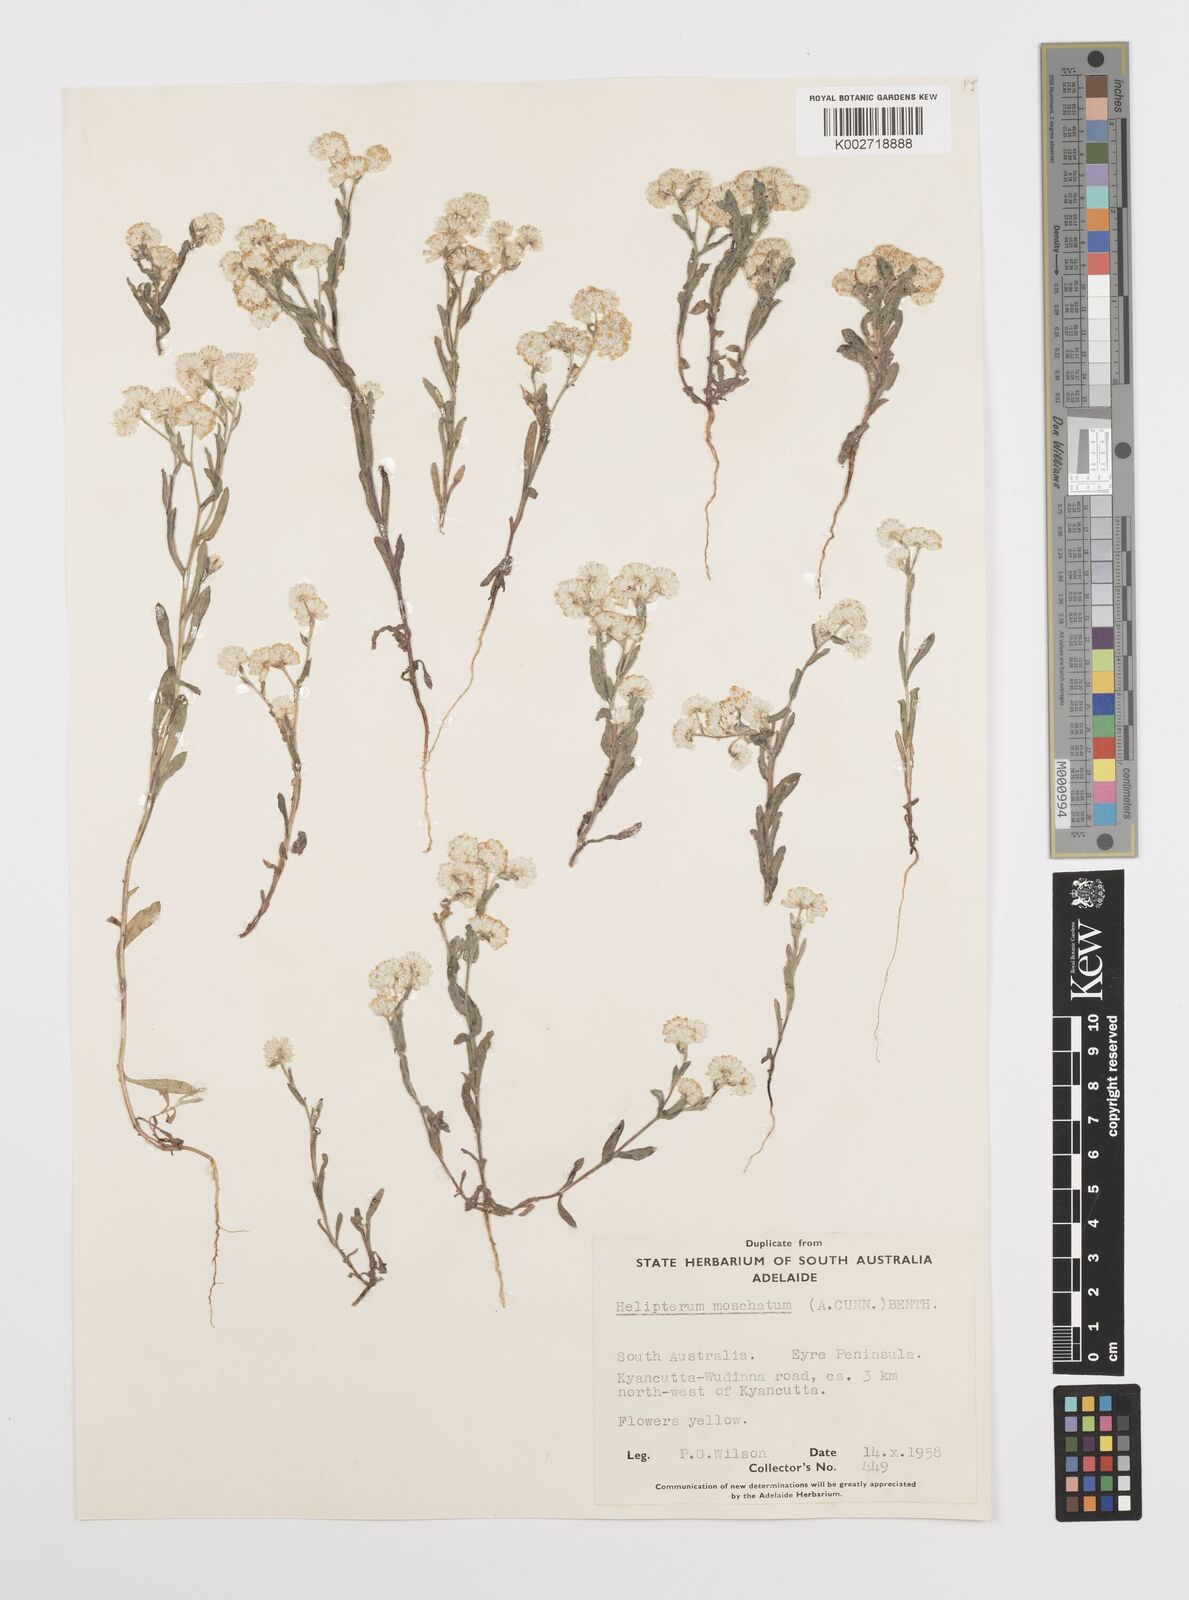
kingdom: Plantae
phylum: Tracheophyta
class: Magnoliopsida
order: Asterales
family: Asteraceae
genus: Rhodanthe
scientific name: Rhodanthe moschata
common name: Musk sunray
